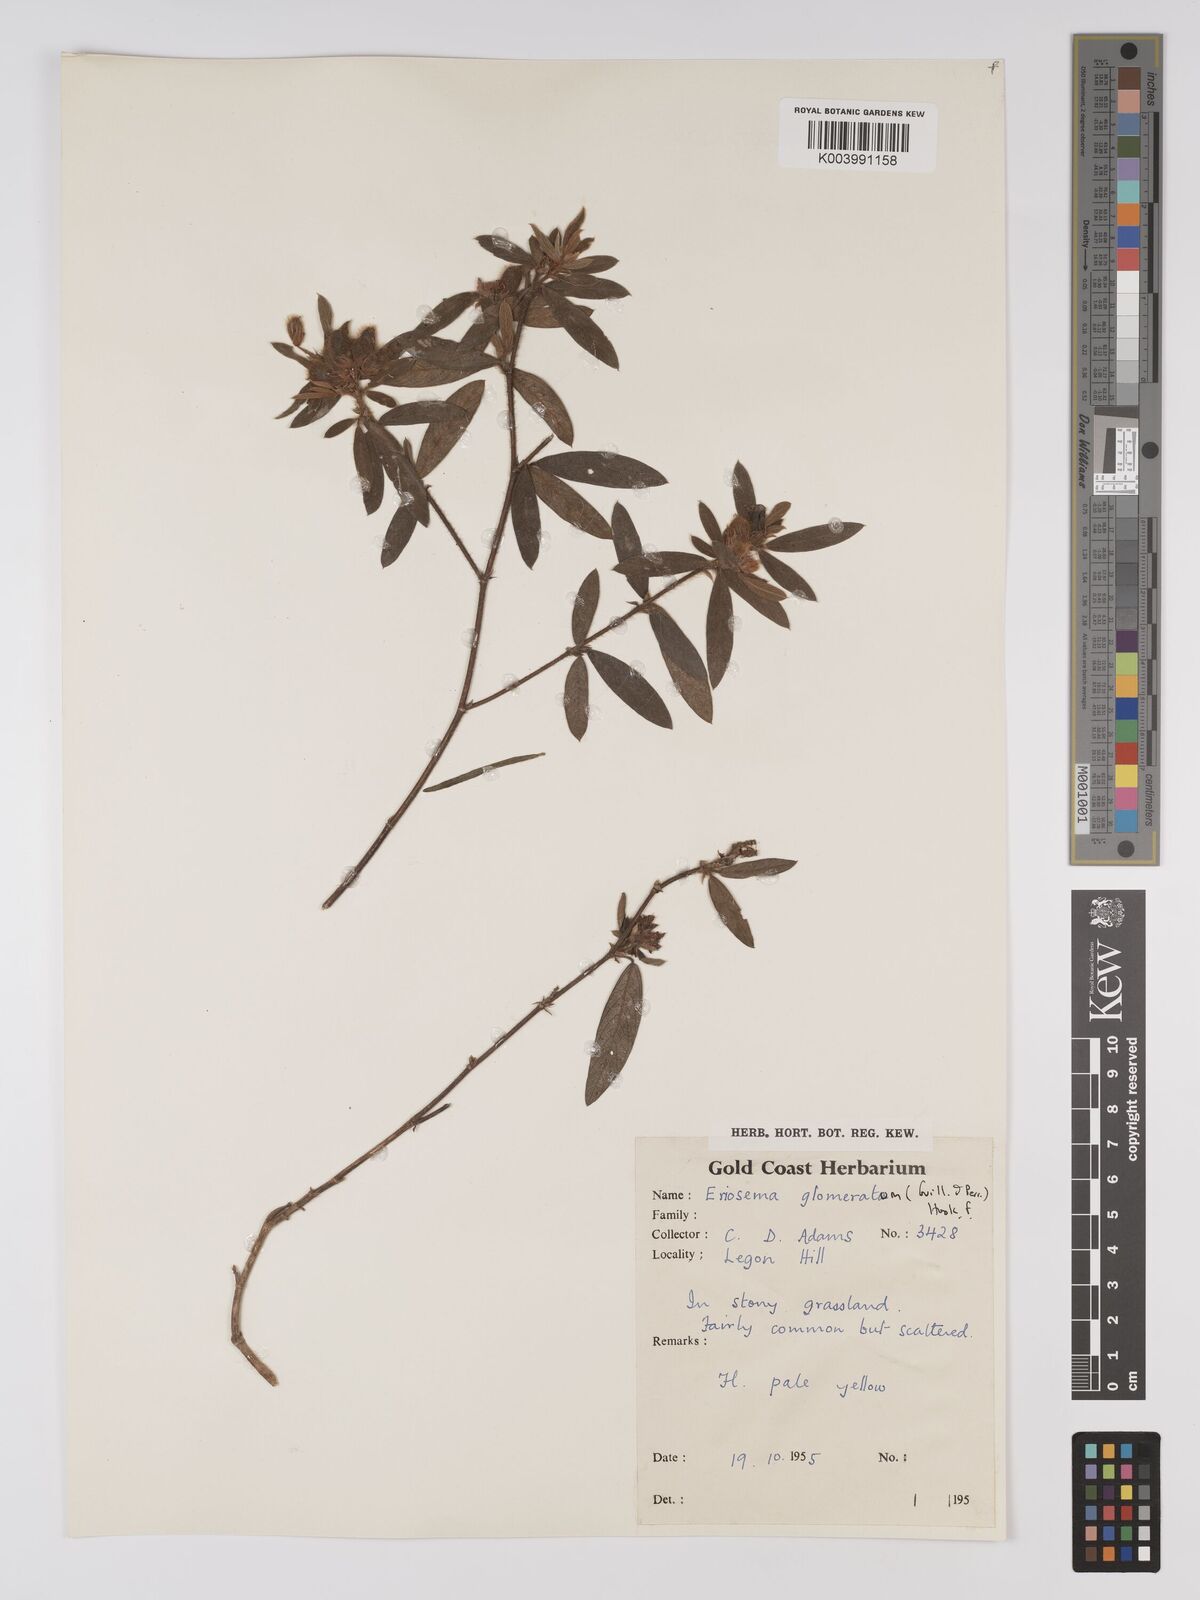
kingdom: Plantae
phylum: Tracheophyta
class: Magnoliopsida
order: Fabales
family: Fabaceae
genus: Eriosema
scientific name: Eriosema glomeratum
